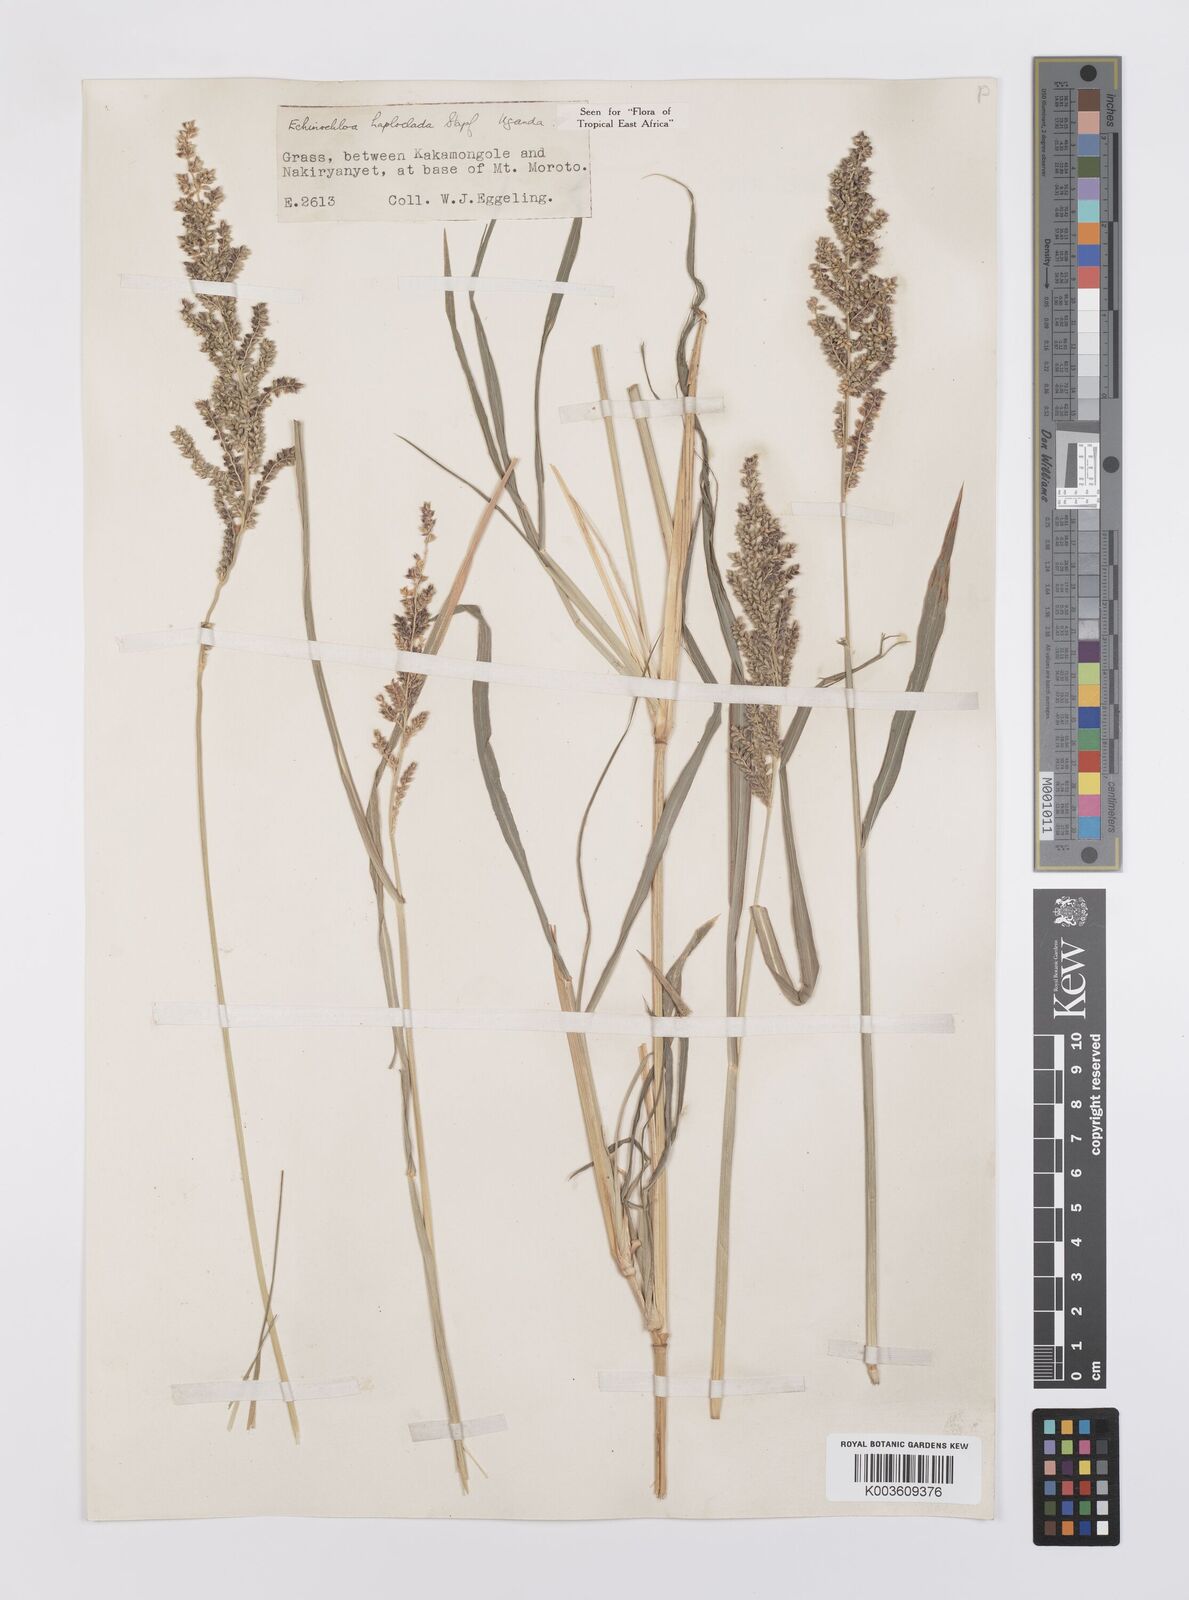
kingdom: Plantae
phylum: Tracheophyta
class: Liliopsida
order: Poales
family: Poaceae
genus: Echinochloa
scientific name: Echinochloa haploclada
